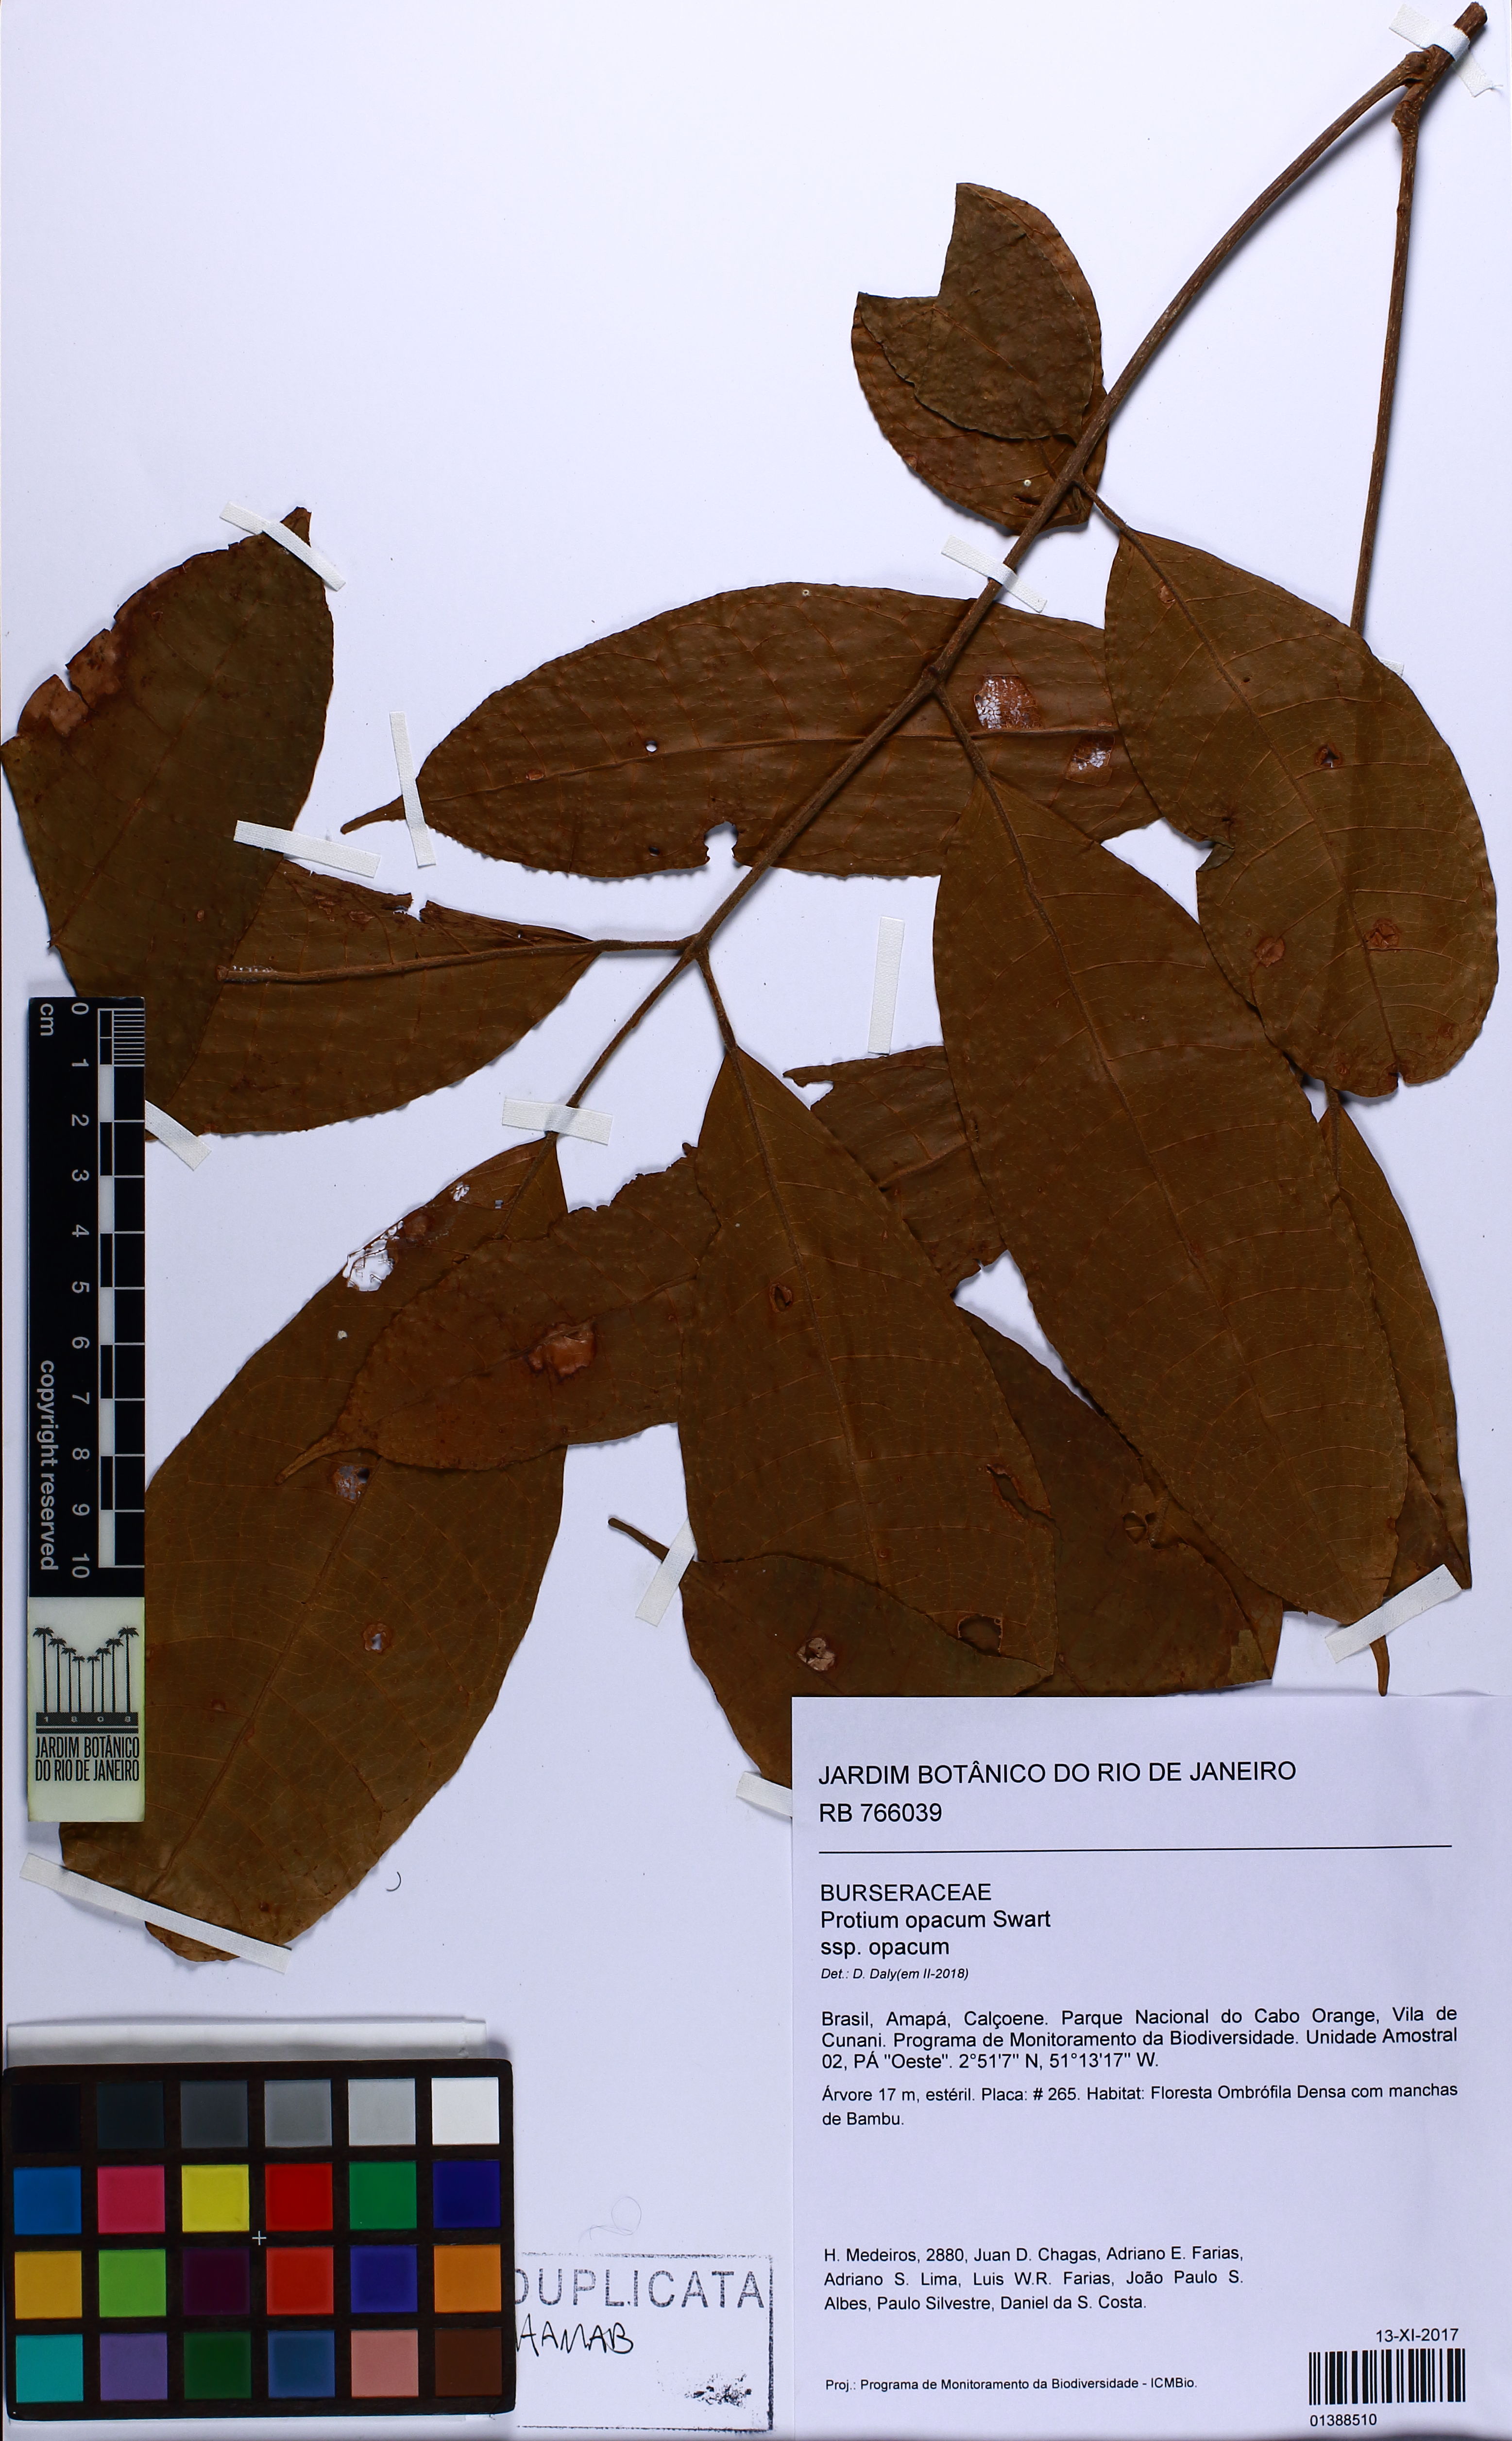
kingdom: Plantae
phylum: Tracheophyta
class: Magnoliopsida
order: Sapindales
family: Burseraceae
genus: Protium
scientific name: Protium opacum
